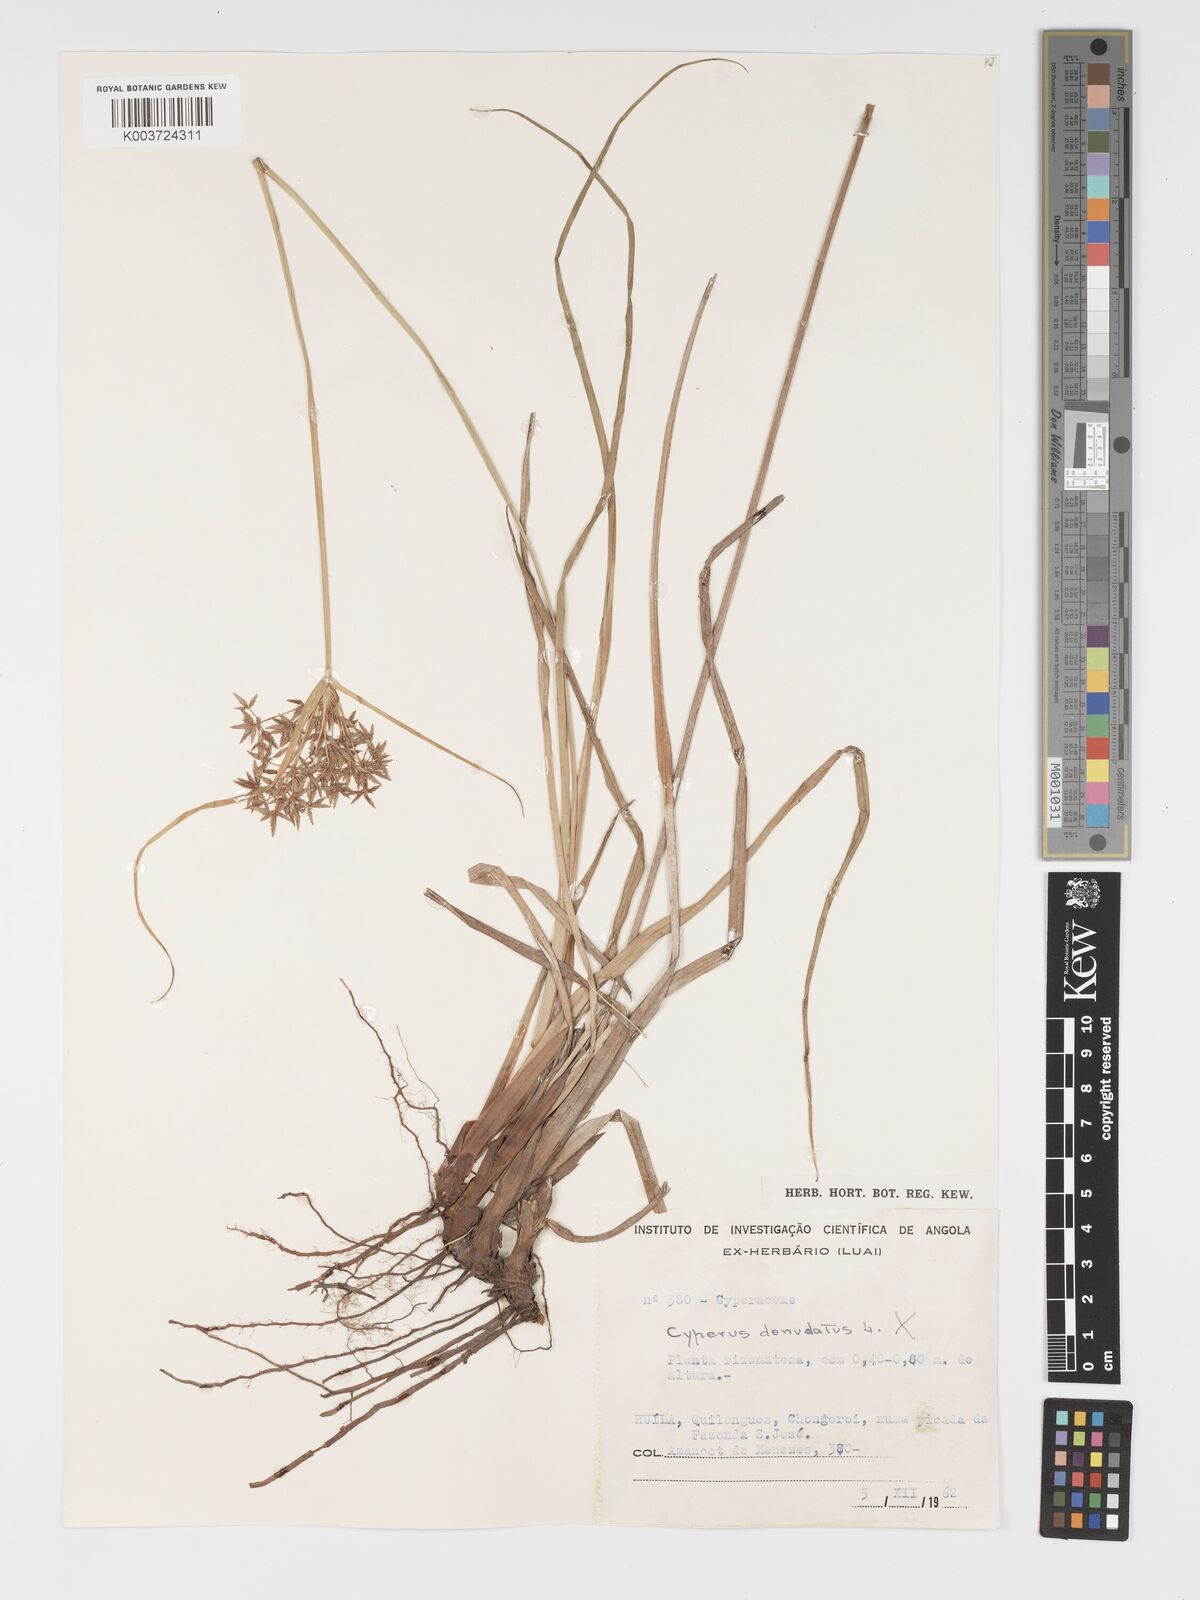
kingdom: Plantae
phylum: Tracheophyta
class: Liliopsida
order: Poales
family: Cyperaceae
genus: Cyperus
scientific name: Cyperus
